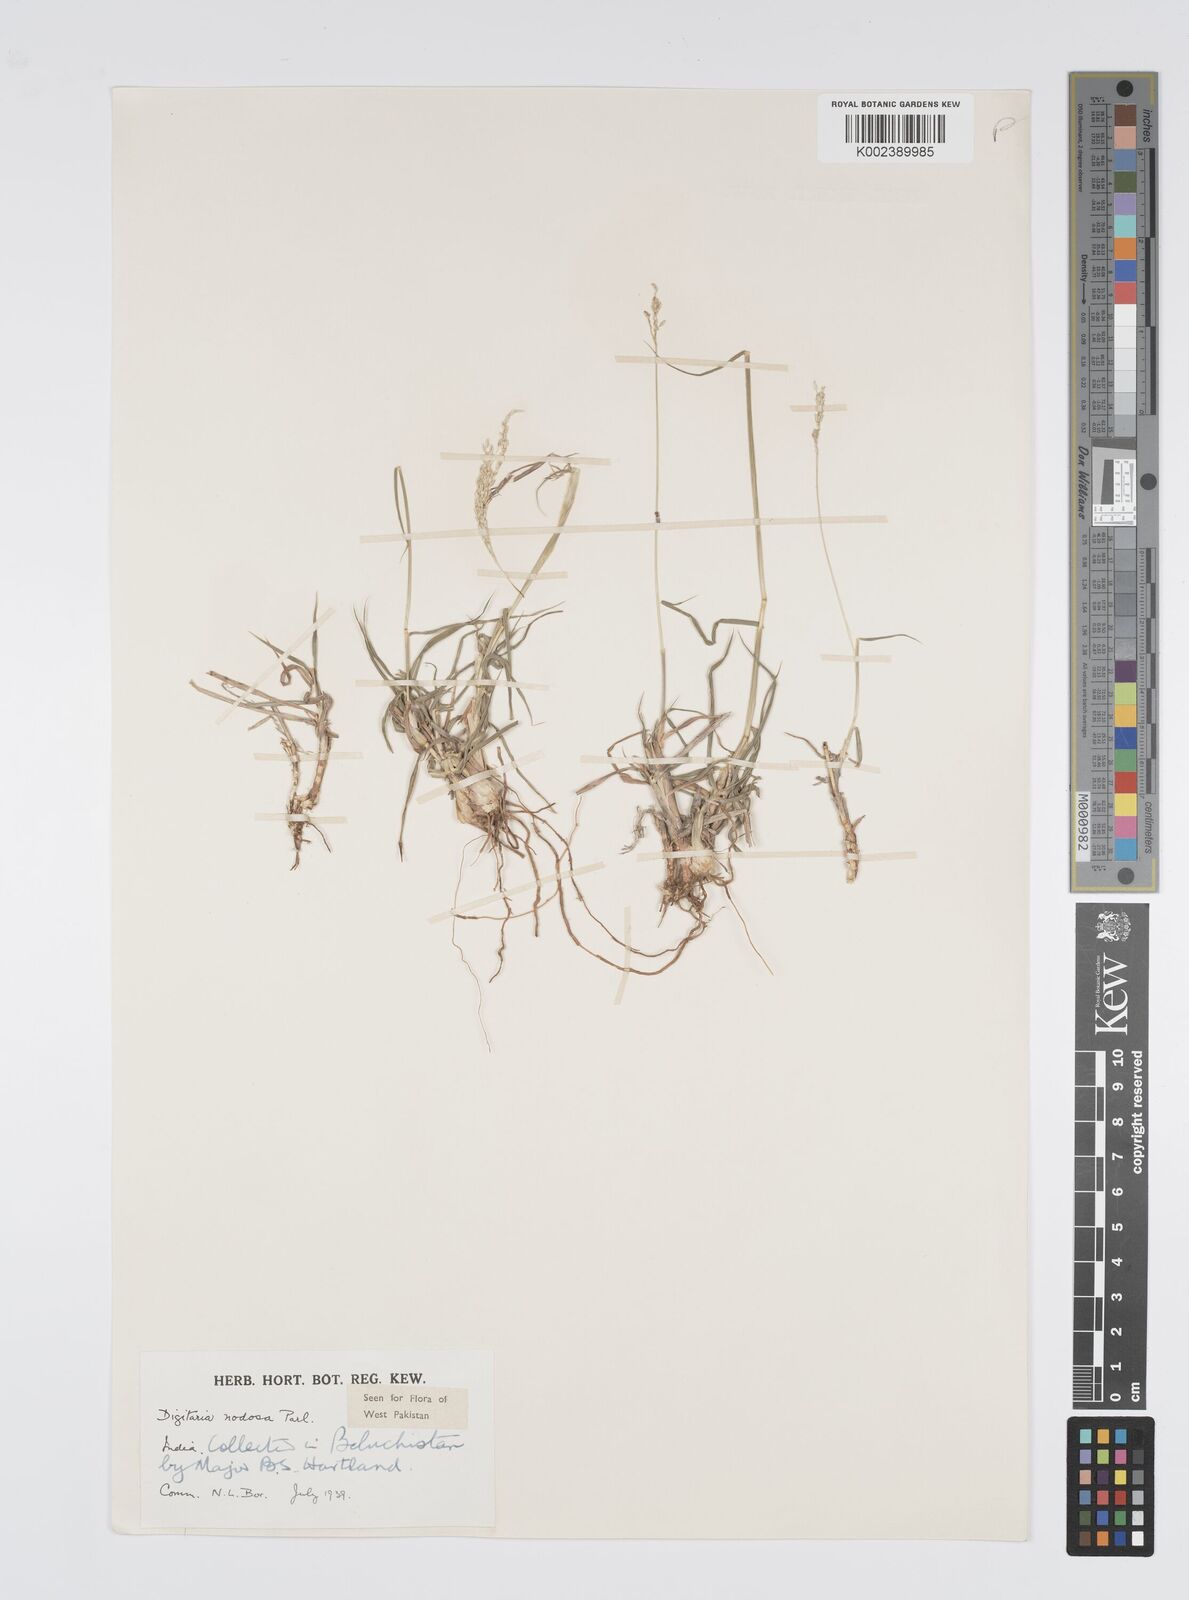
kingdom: Plantae
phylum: Tracheophyta
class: Liliopsida
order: Poales
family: Poaceae
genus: Digitaria
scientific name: Digitaria nodosa
